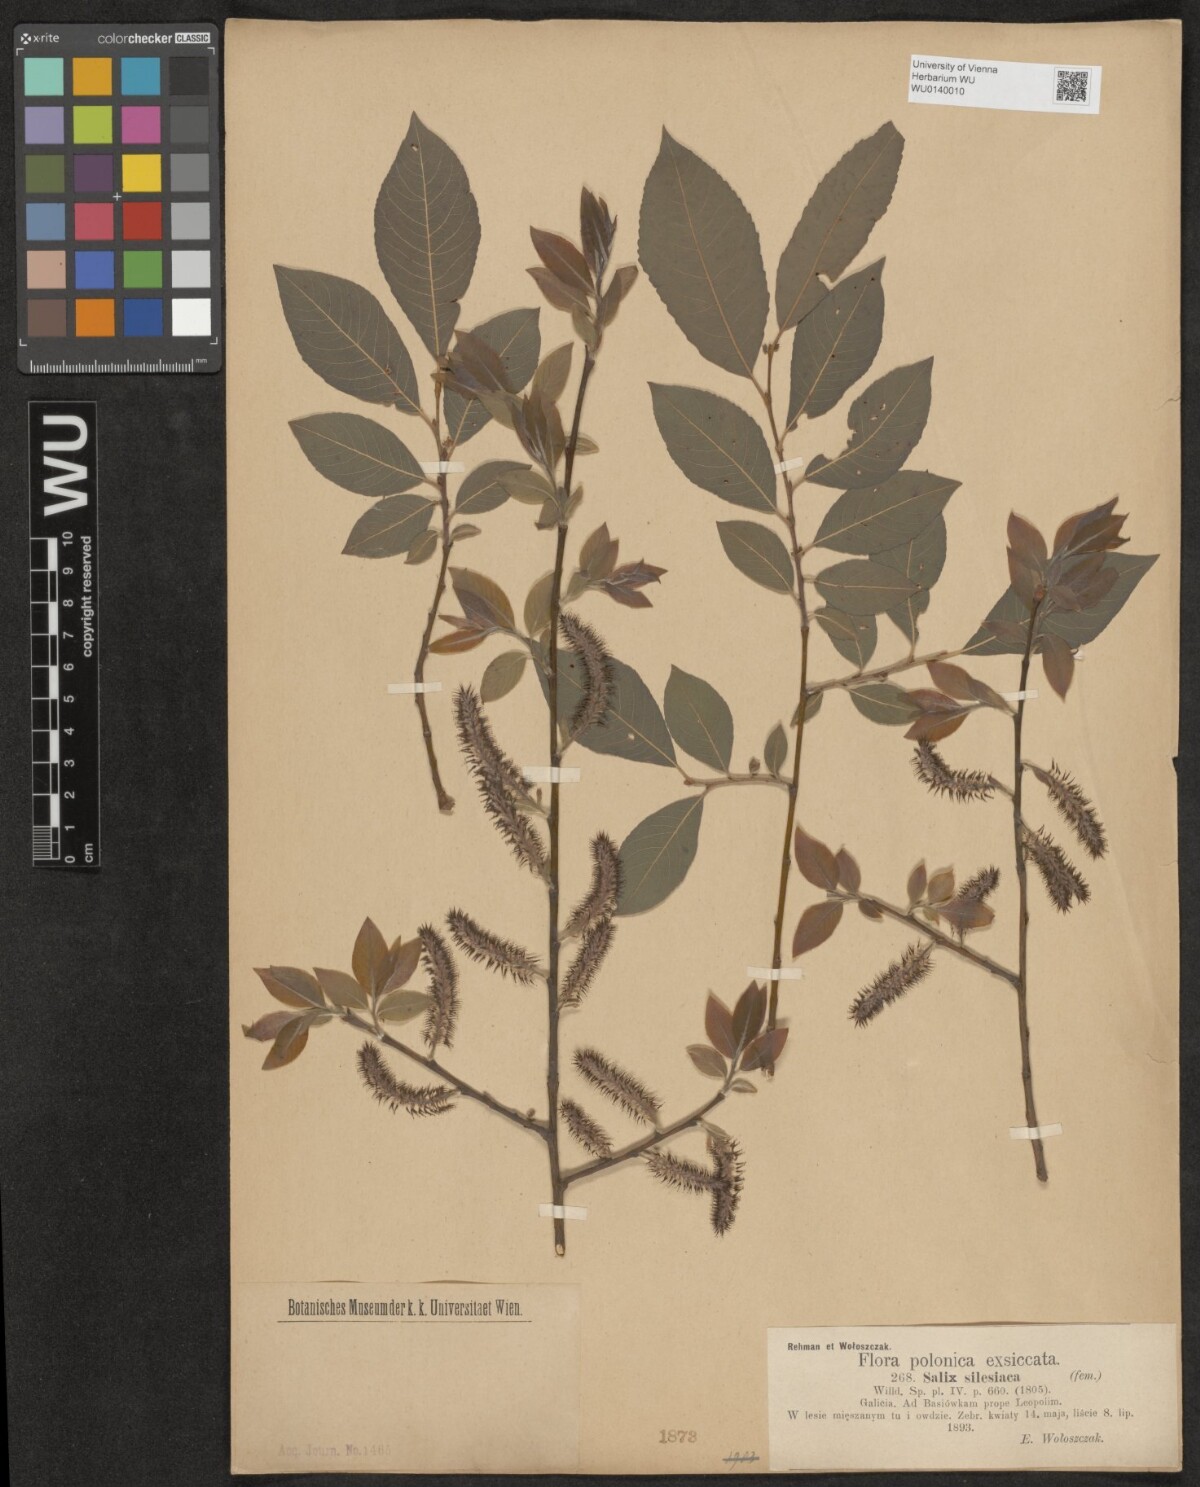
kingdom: Plantae
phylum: Tracheophyta
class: Magnoliopsida
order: Malpighiales
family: Salicaceae
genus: Salix
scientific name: Salix silesiaca
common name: Silesian willow
